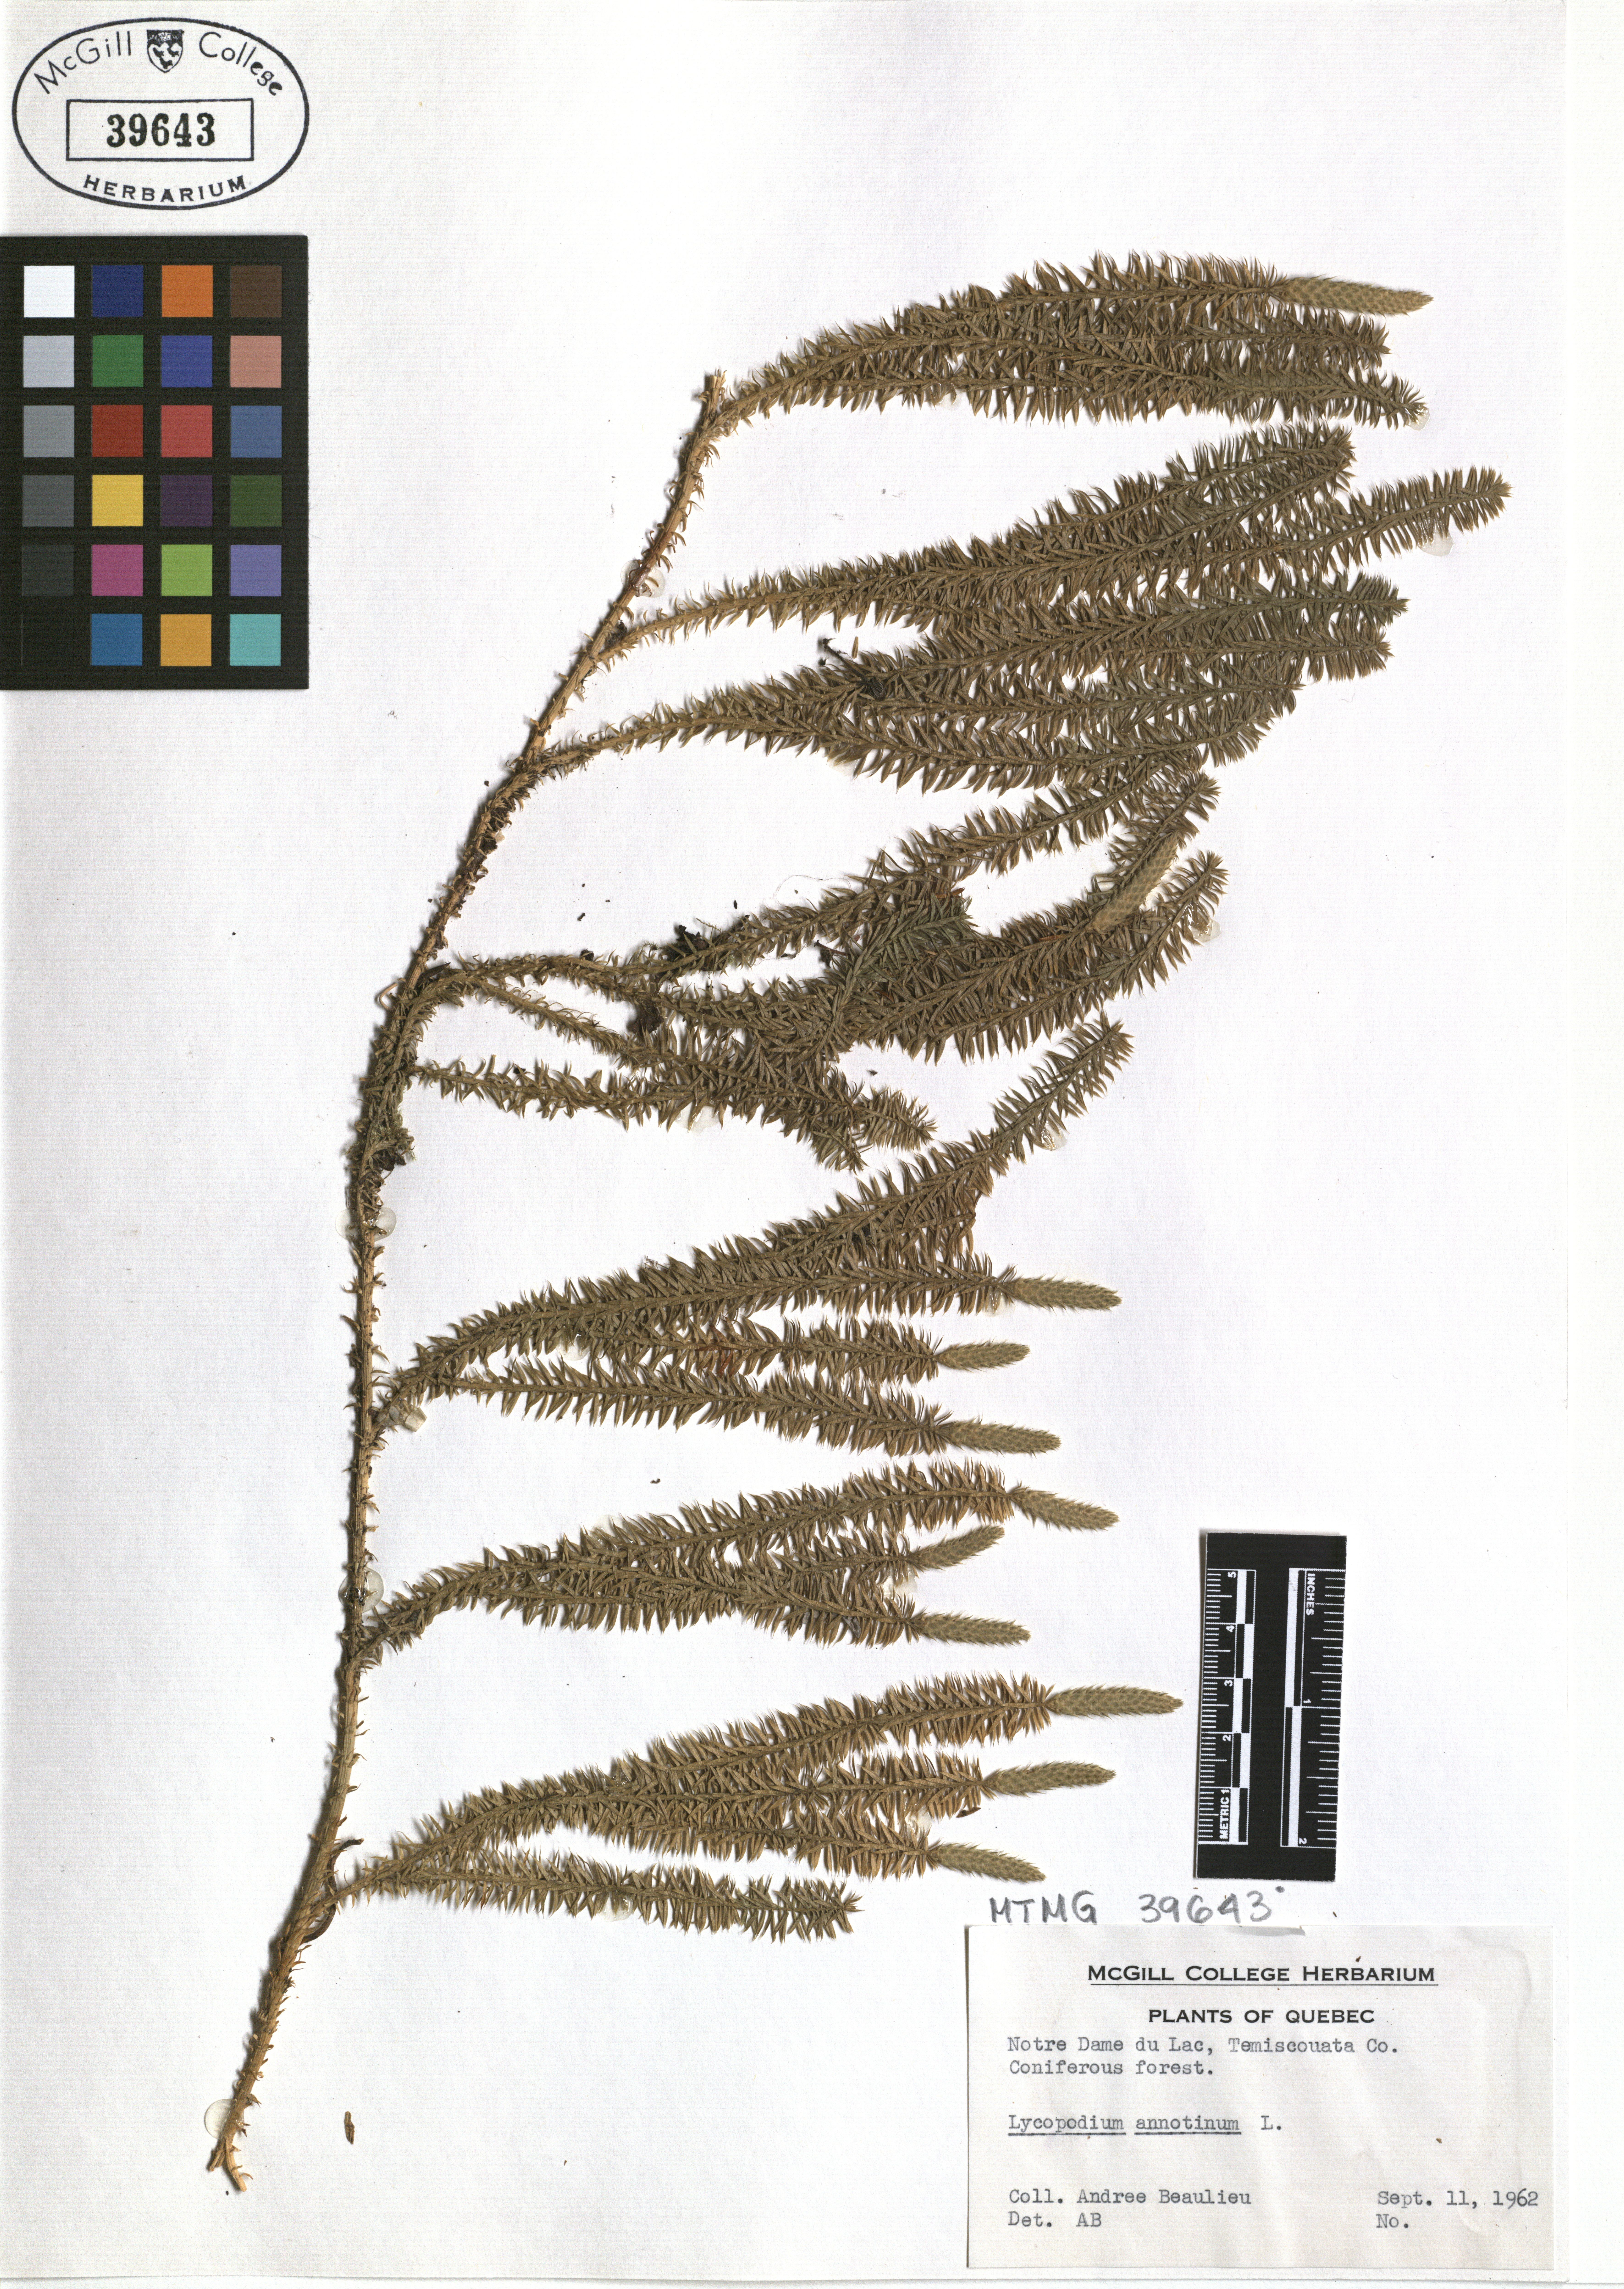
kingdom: Plantae
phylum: Tracheophyta
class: Lycopodiopsida
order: Lycopodiales
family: Lycopodiaceae
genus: Spinulum
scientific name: Spinulum annotinum
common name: Interrupted club-moss
